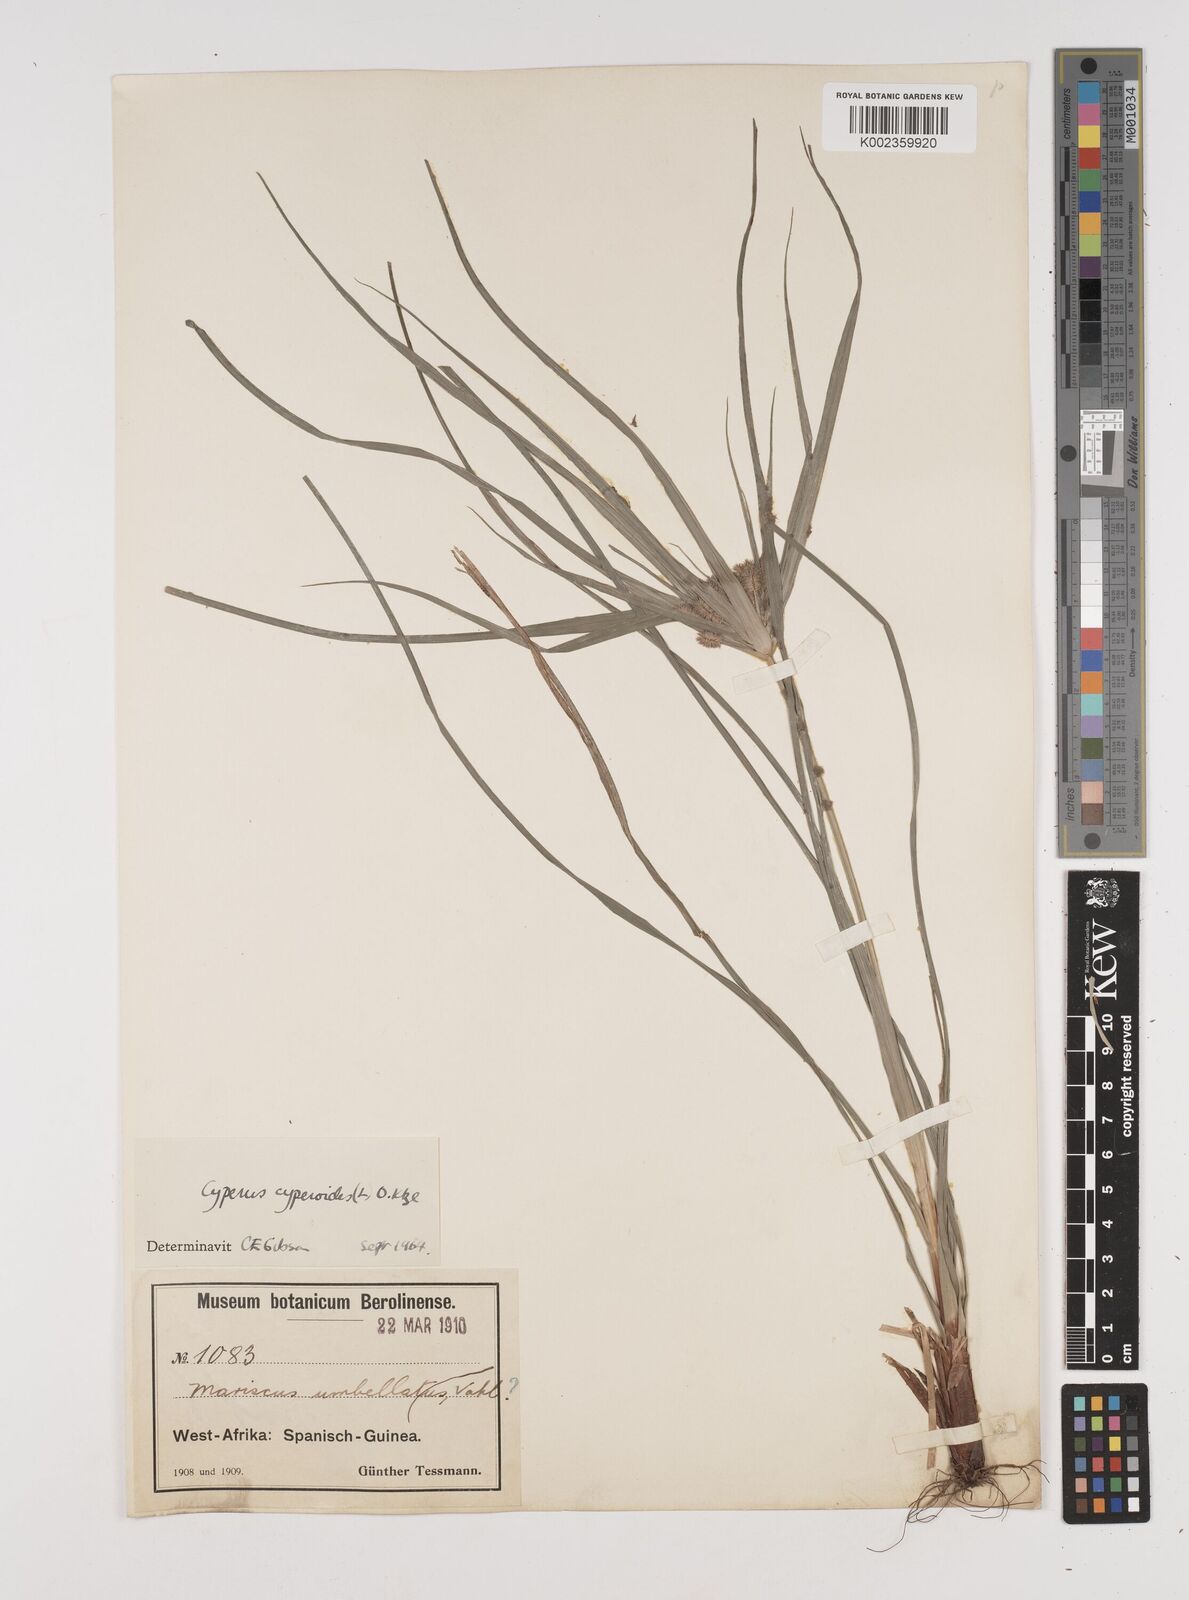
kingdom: Plantae
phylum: Tracheophyta
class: Liliopsida
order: Poales
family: Cyperaceae
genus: Cyperus
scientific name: Cyperus cyperoides
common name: Pacific island flat sedge
